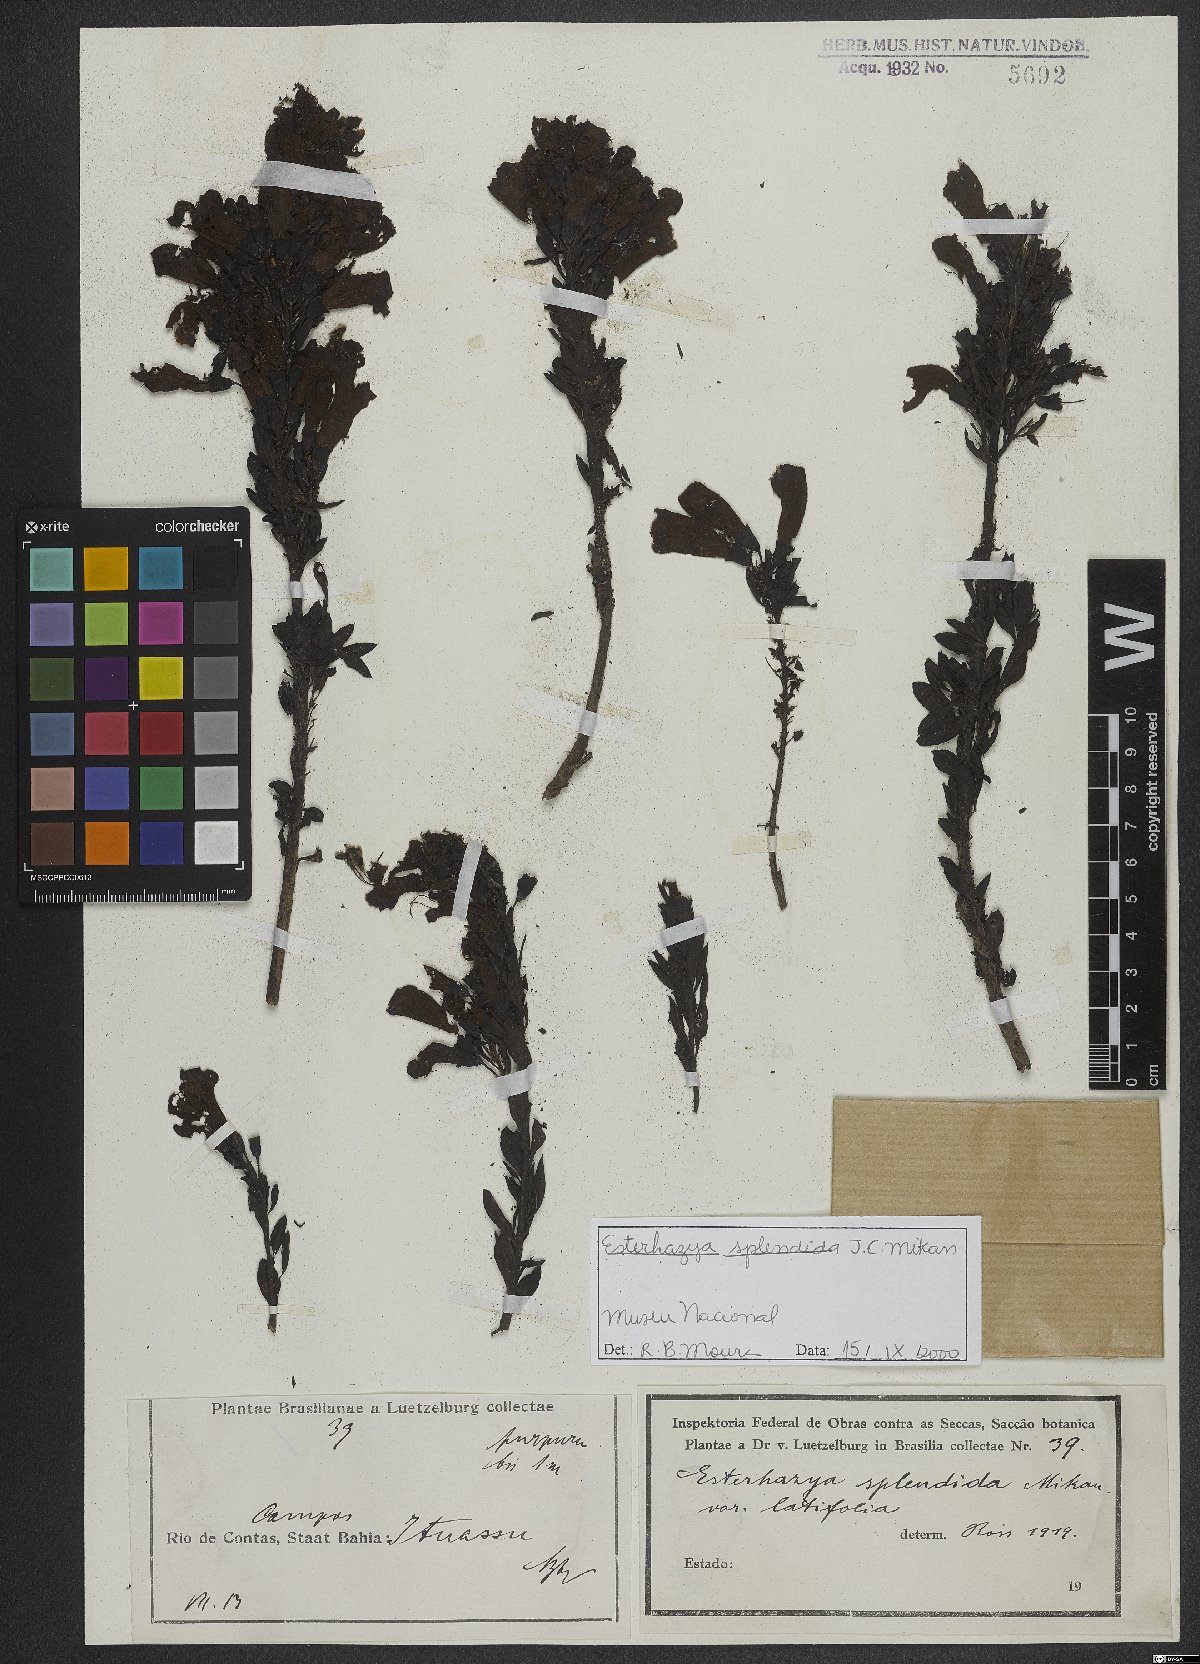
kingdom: Plantae
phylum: Tracheophyta
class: Magnoliopsida
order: Lamiales
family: Orobanchaceae
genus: Esterhazya
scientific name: Esterhazya splendida
